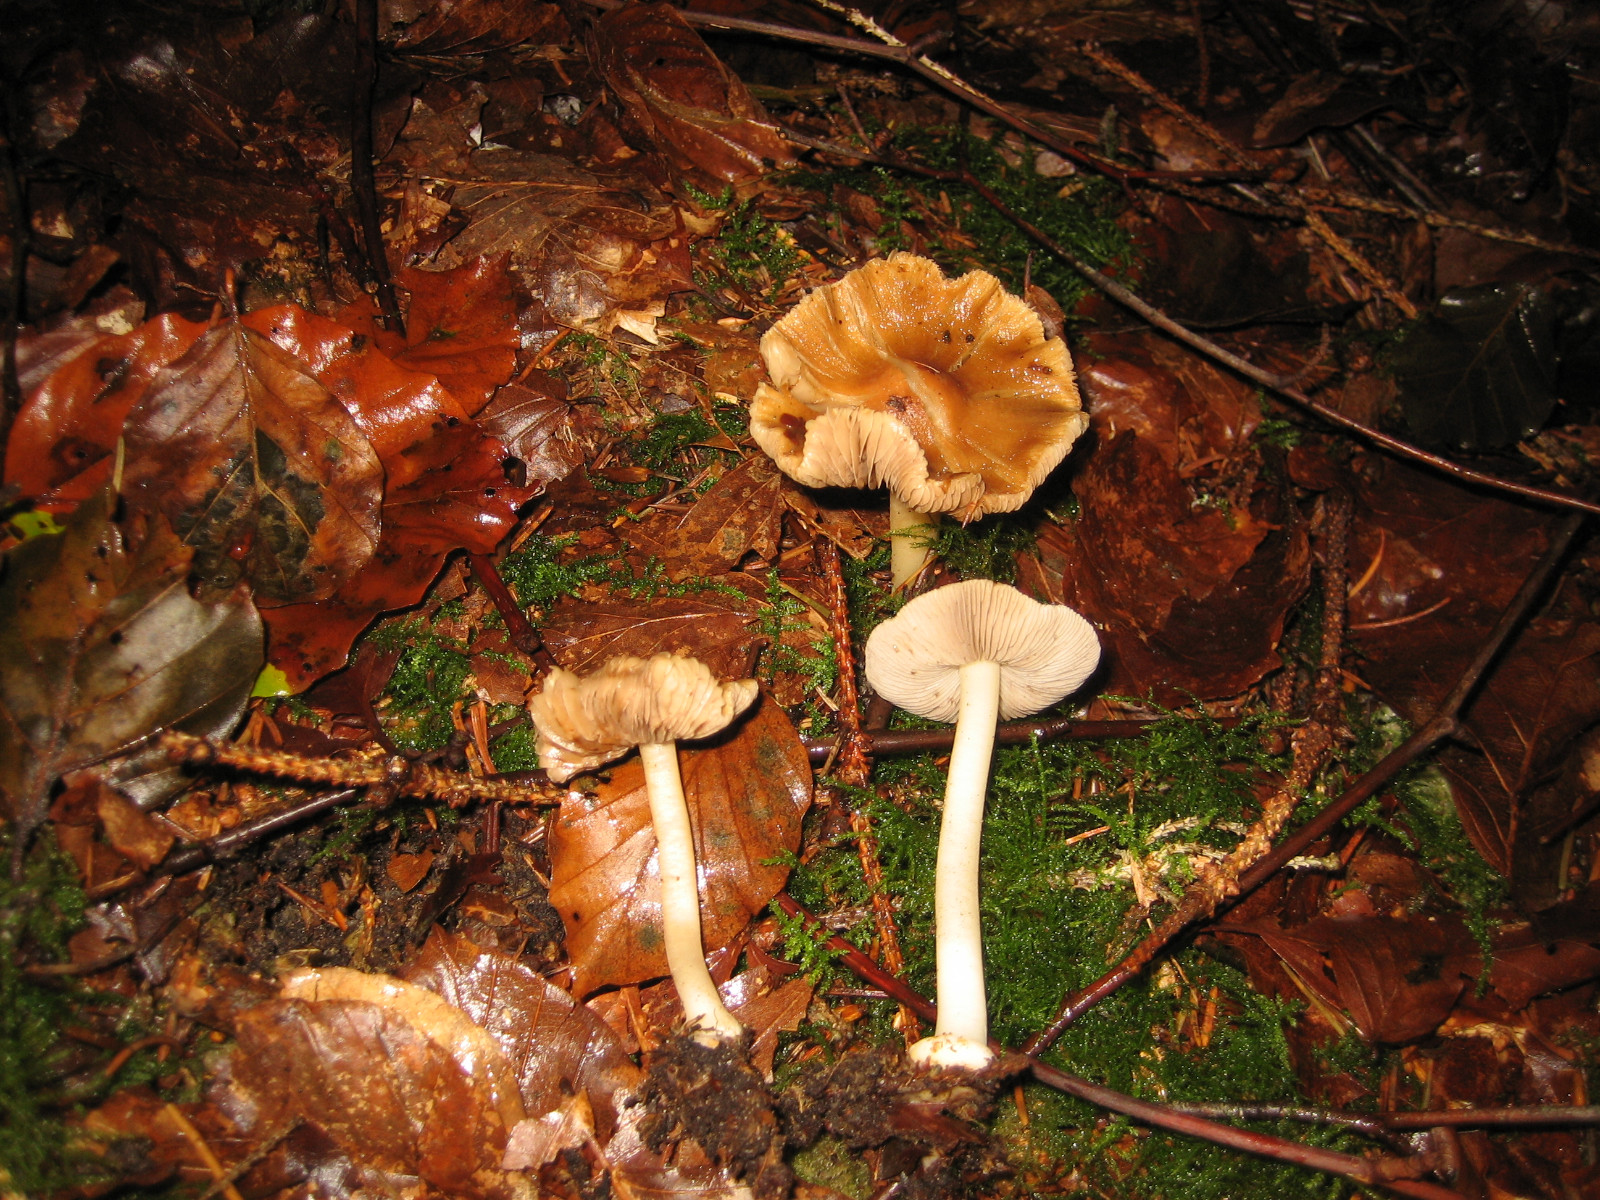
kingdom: Fungi
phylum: Basidiomycota
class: Agaricomycetes
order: Agaricales
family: Inocybaceae
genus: Inocybe
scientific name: Inocybe mixtilis
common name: randknoldet trævlhat
